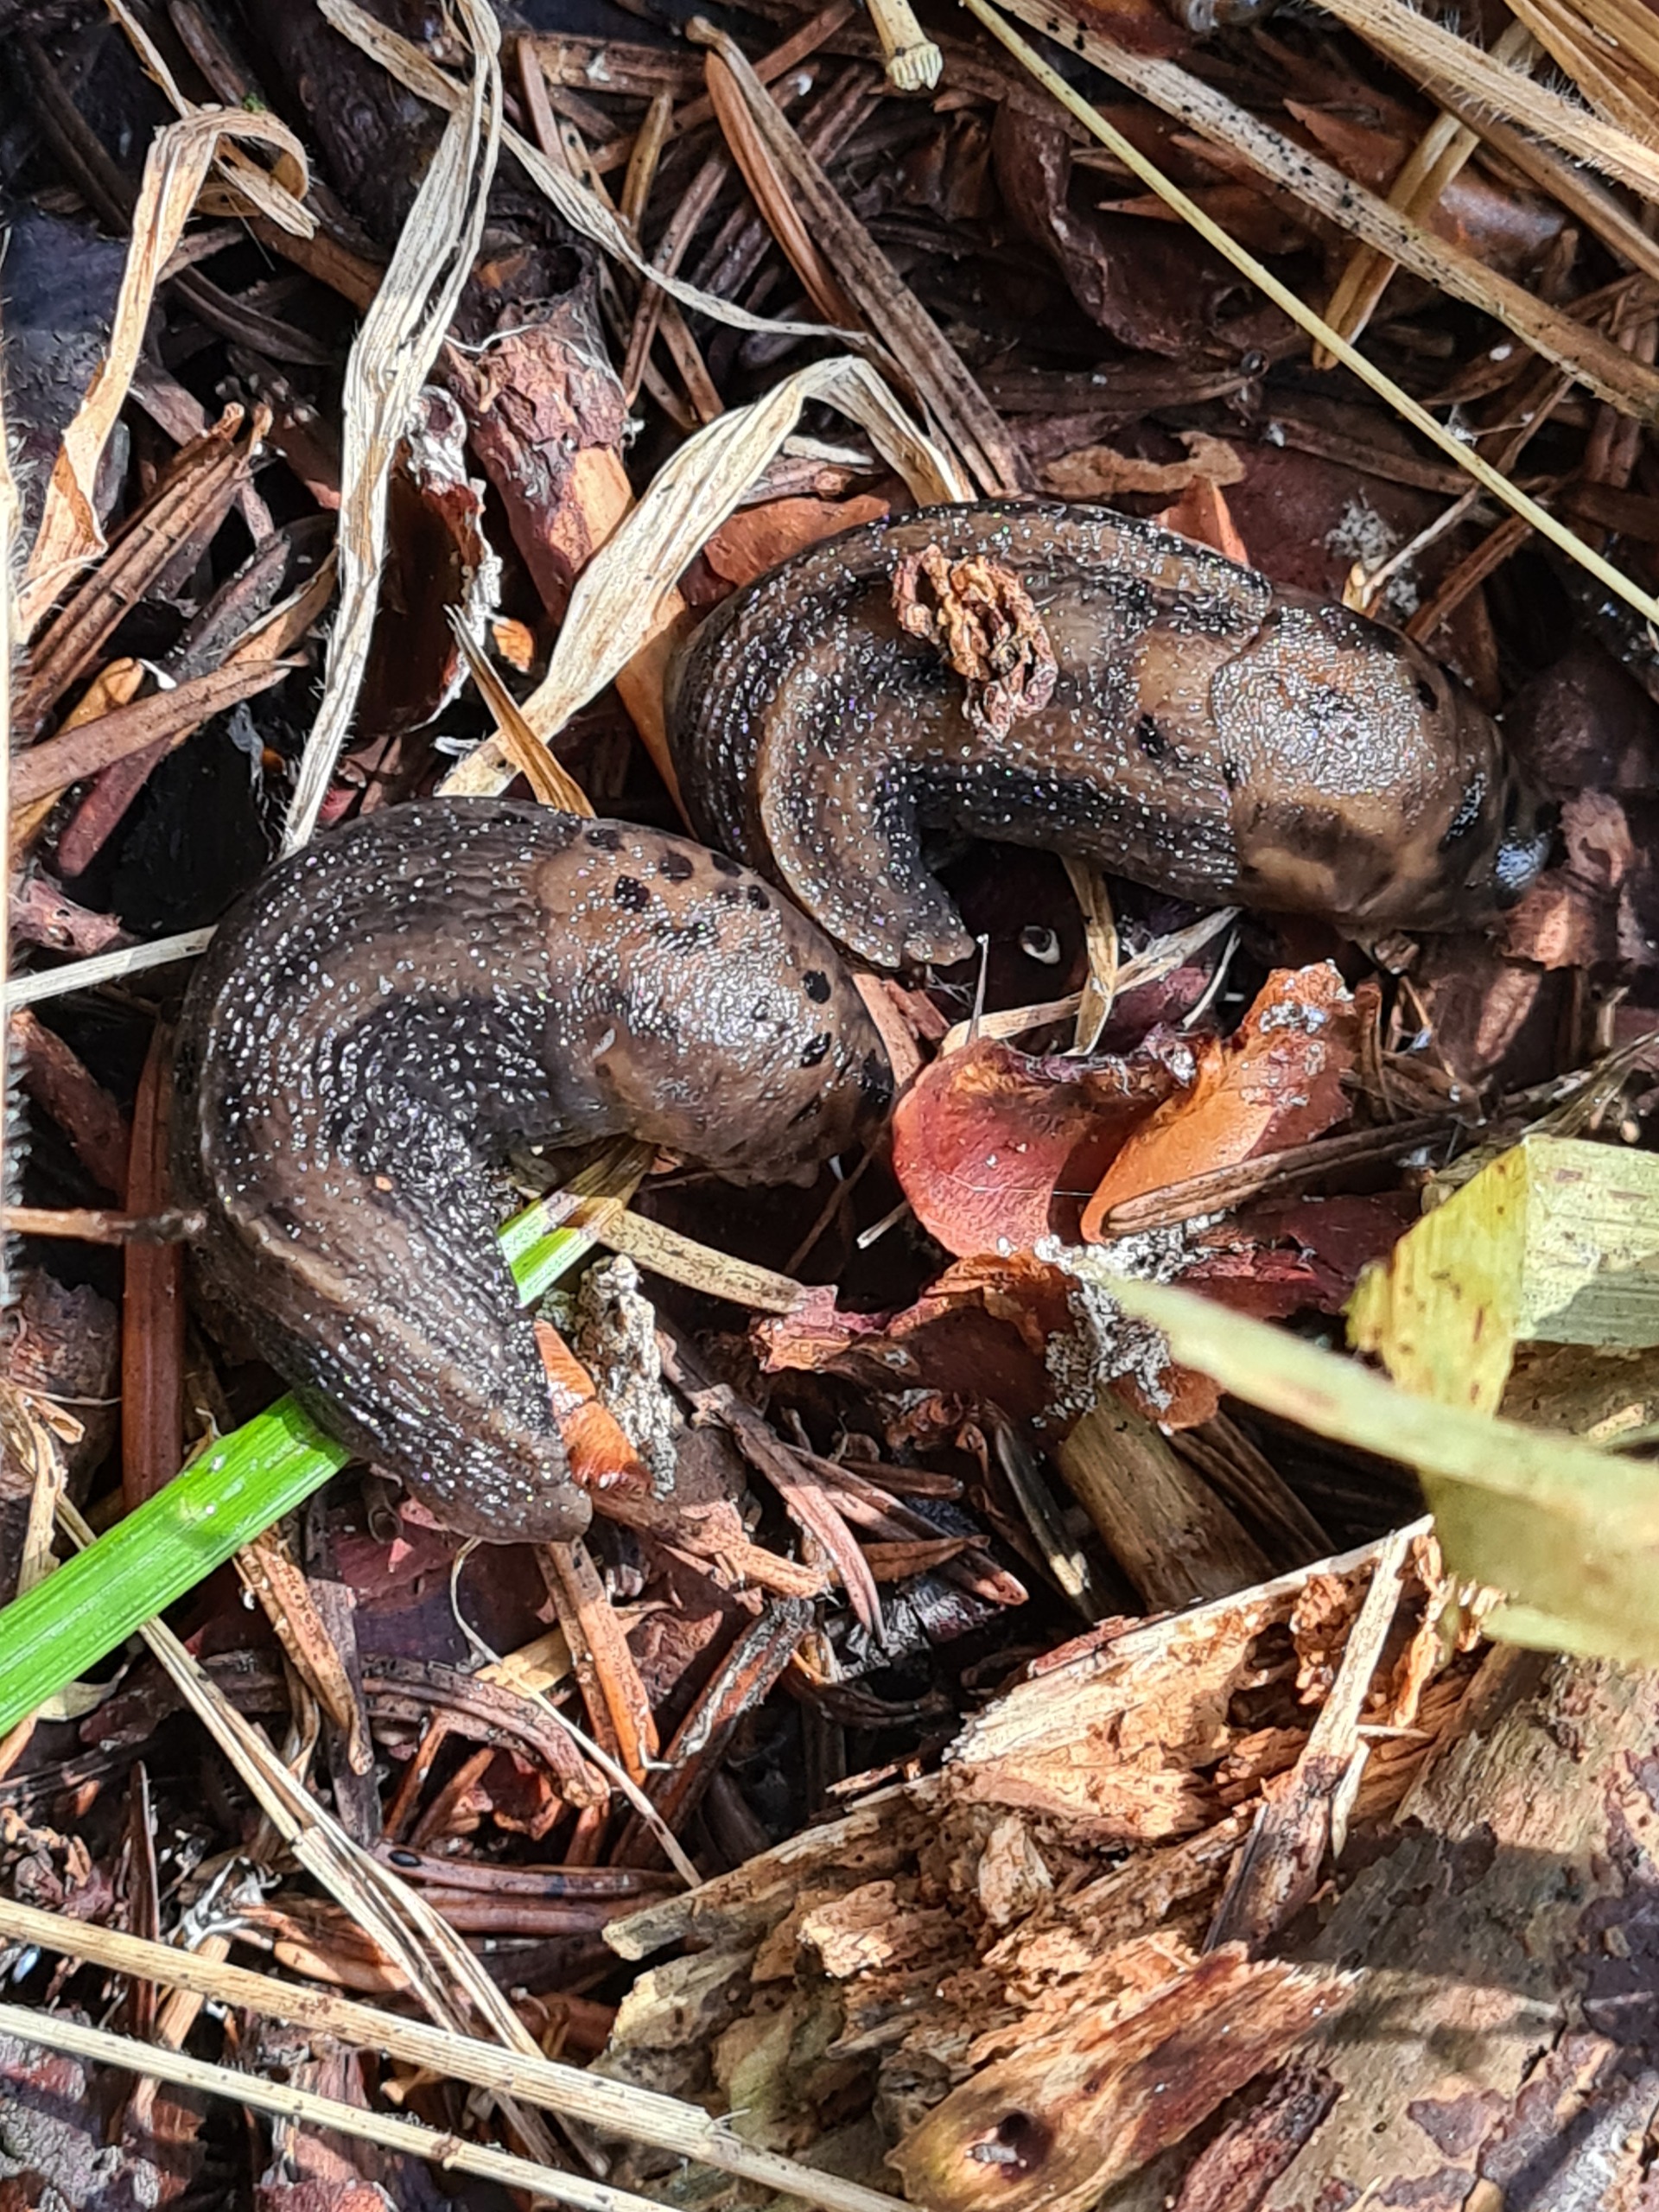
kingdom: Animalia
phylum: Mollusca
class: Gastropoda
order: Stylommatophora
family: Limacidae
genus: Limax
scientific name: Limax maximus
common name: Pantersnegl
